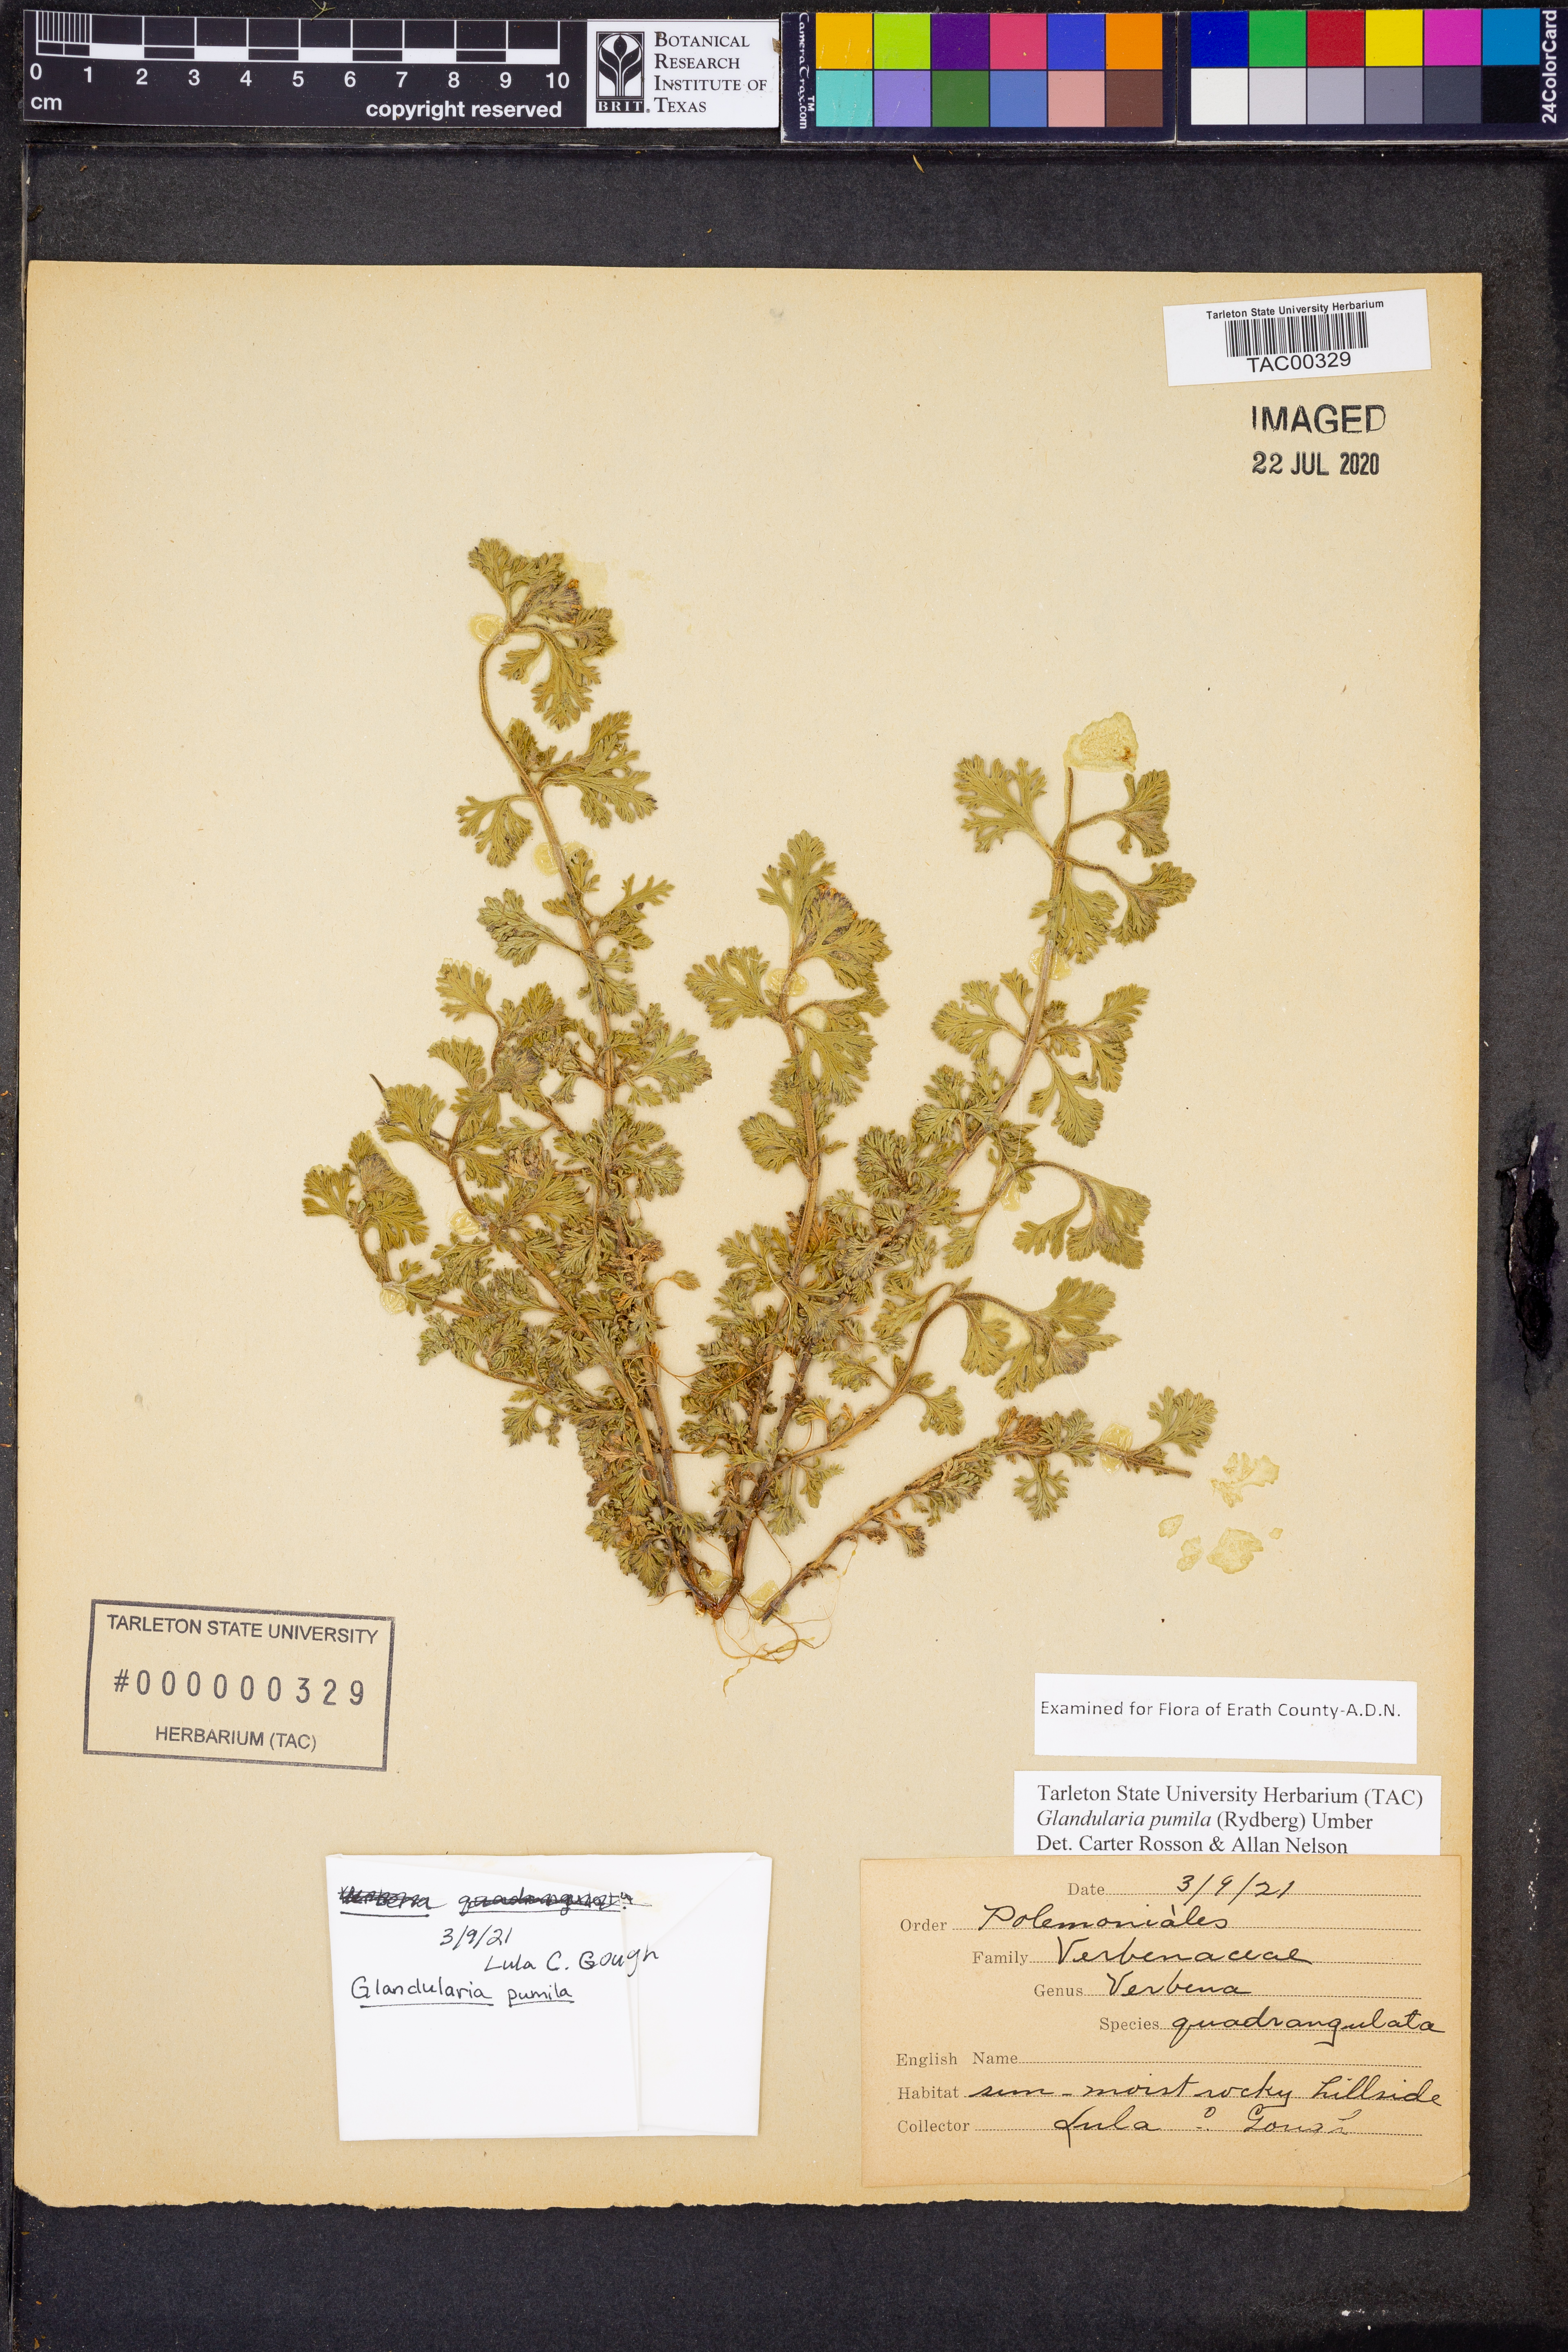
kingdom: Plantae
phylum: Tracheophyta
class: Magnoliopsida
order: Lamiales
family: Verbenaceae
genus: Verbena
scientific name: Verbena pumila
